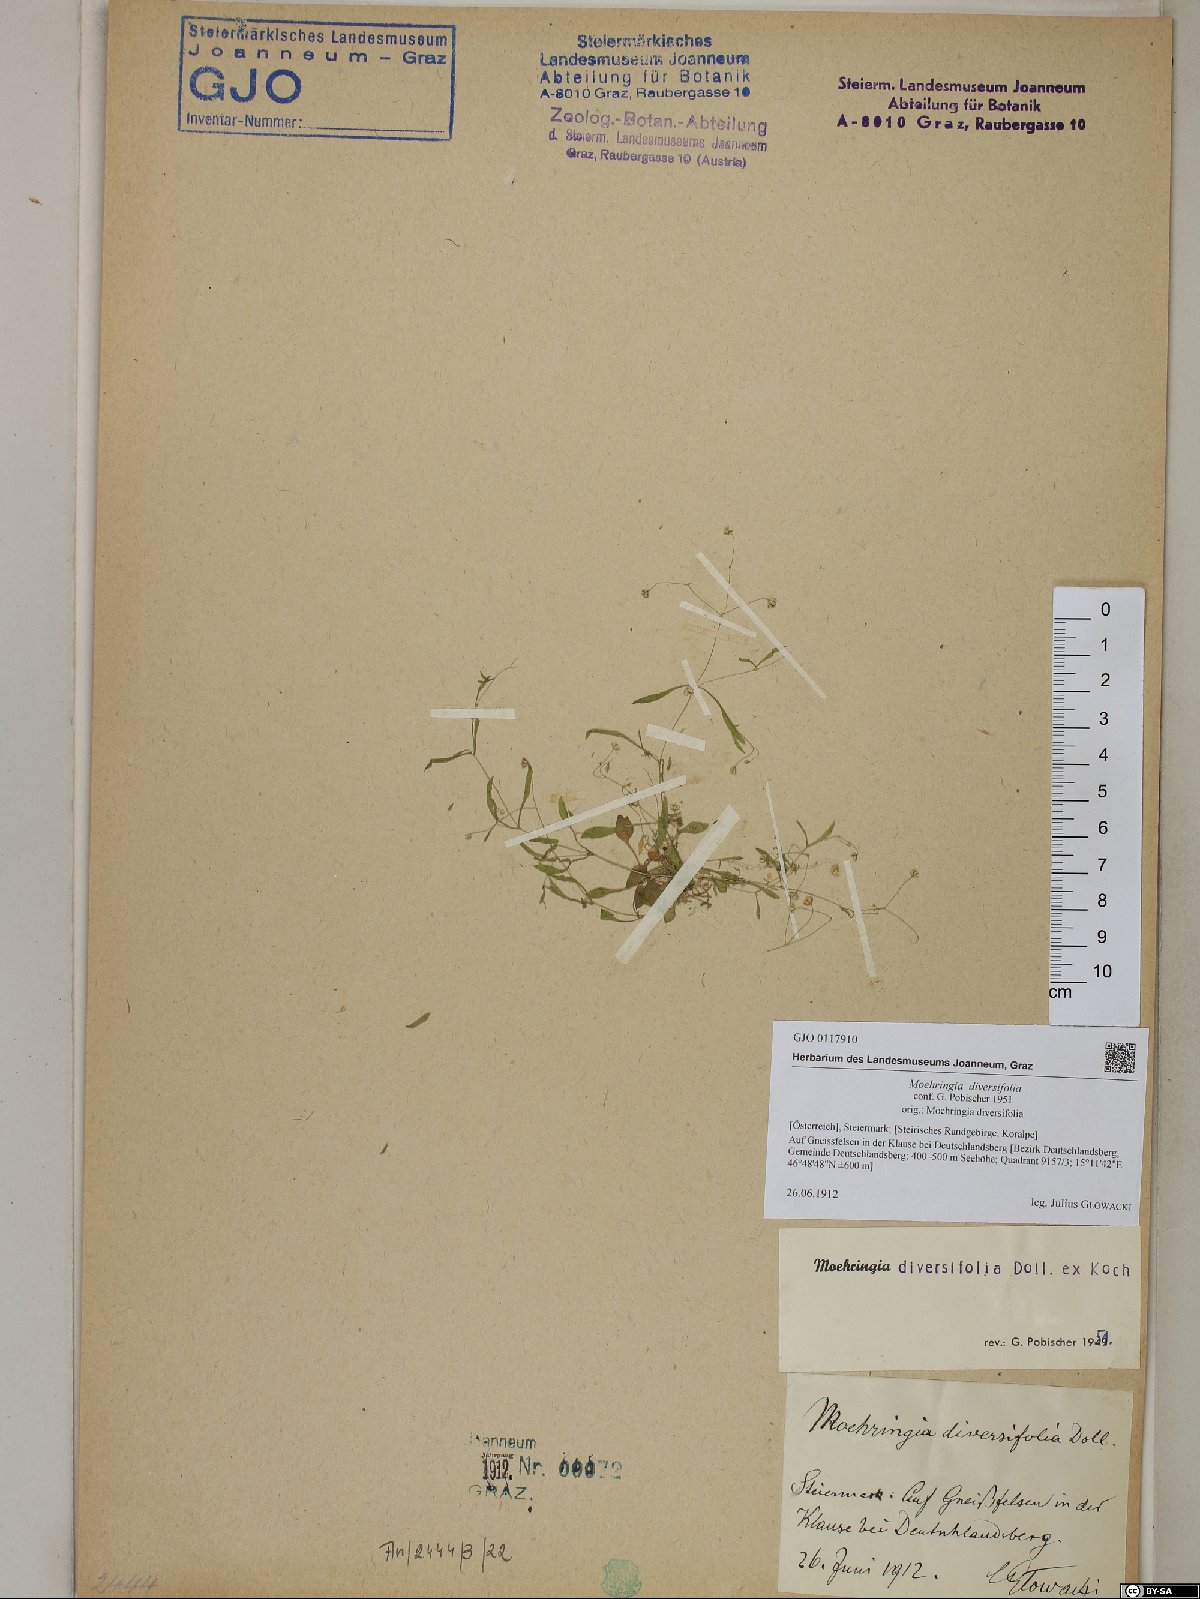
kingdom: Plantae
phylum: Tracheophyta
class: Magnoliopsida
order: Caryophyllales
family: Caryophyllaceae
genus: Moehringia
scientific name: Moehringia diversifolia
